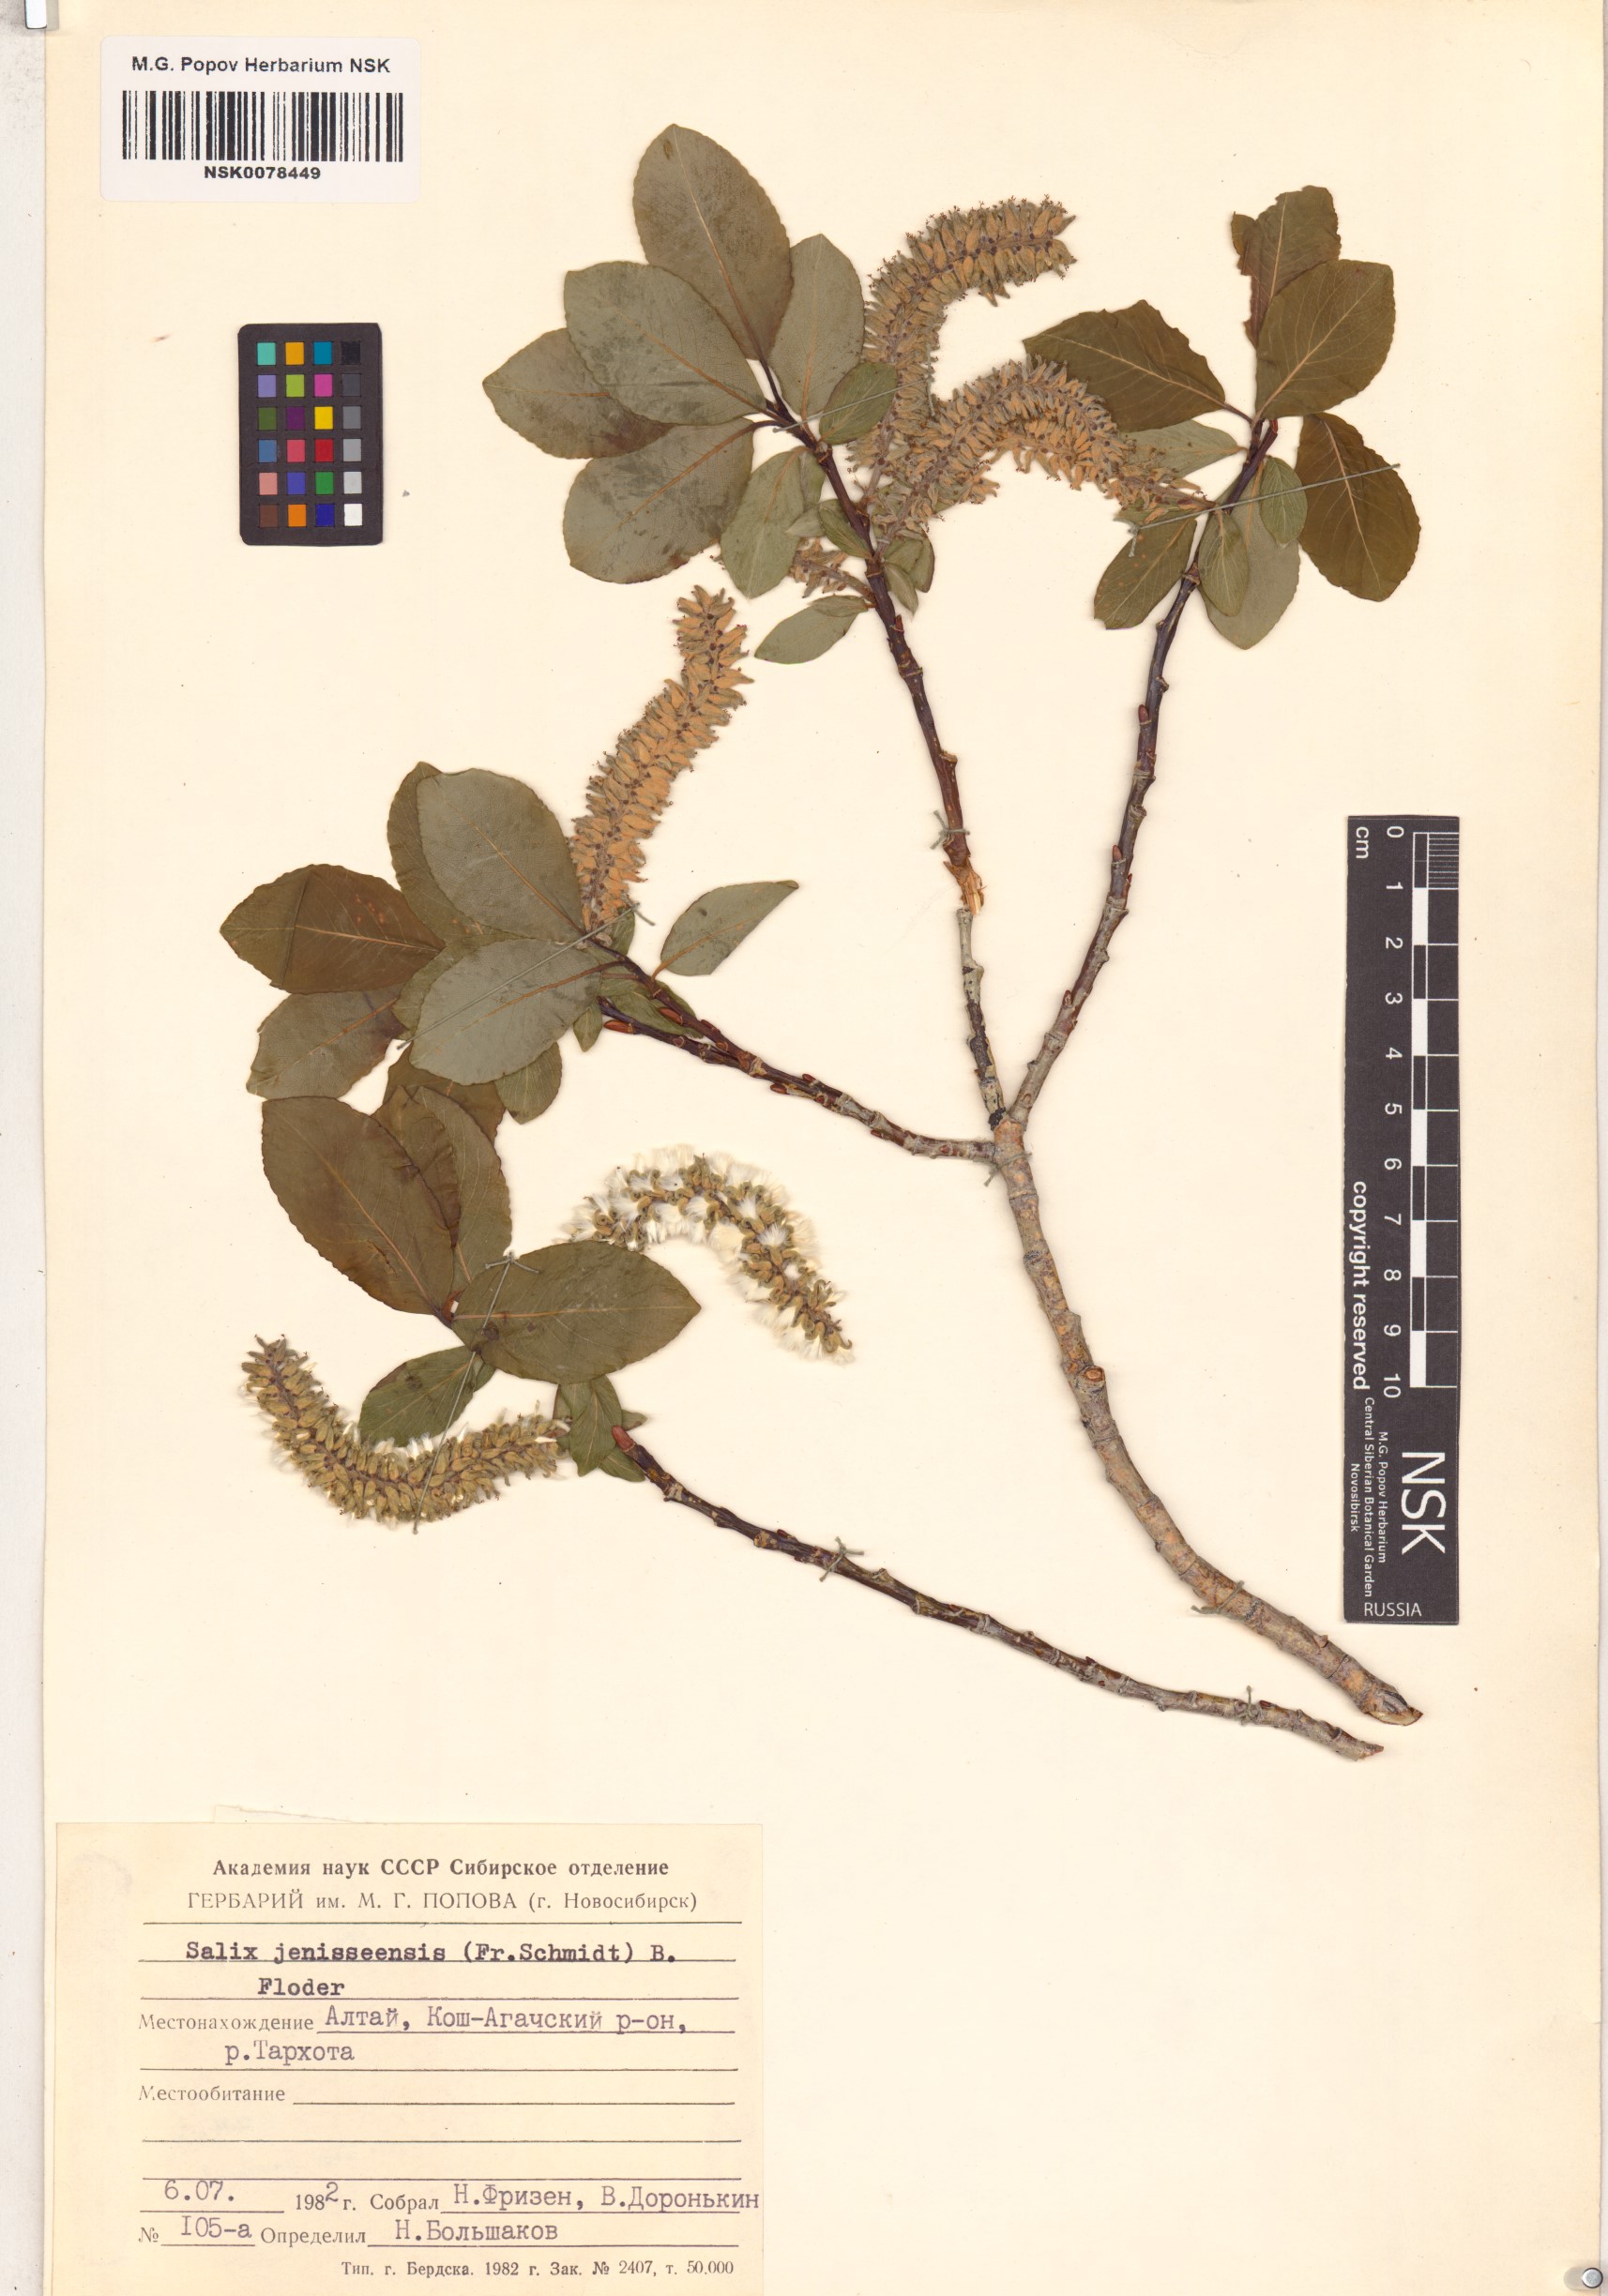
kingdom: Plantae
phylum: Tracheophyta
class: Magnoliopsida
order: Malpighiales
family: Salicaceae
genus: Salix
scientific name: Salix jenisseensis
